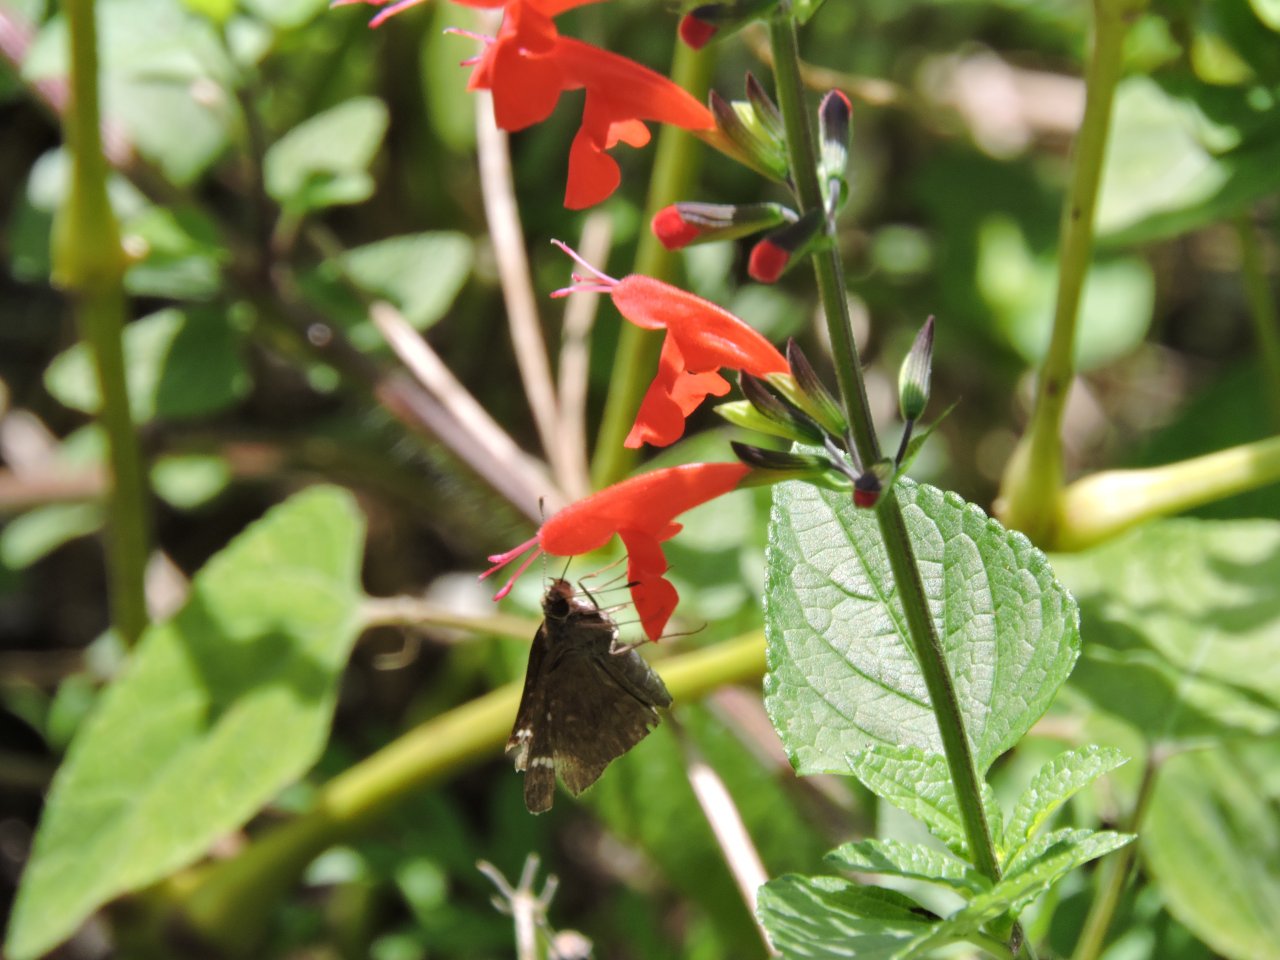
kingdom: Animalia
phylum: Arthropoda
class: Insecta
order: Lepidoptera
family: Hesperiidae
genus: Lerema
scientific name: Lerema accius
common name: Clouded Skipper
